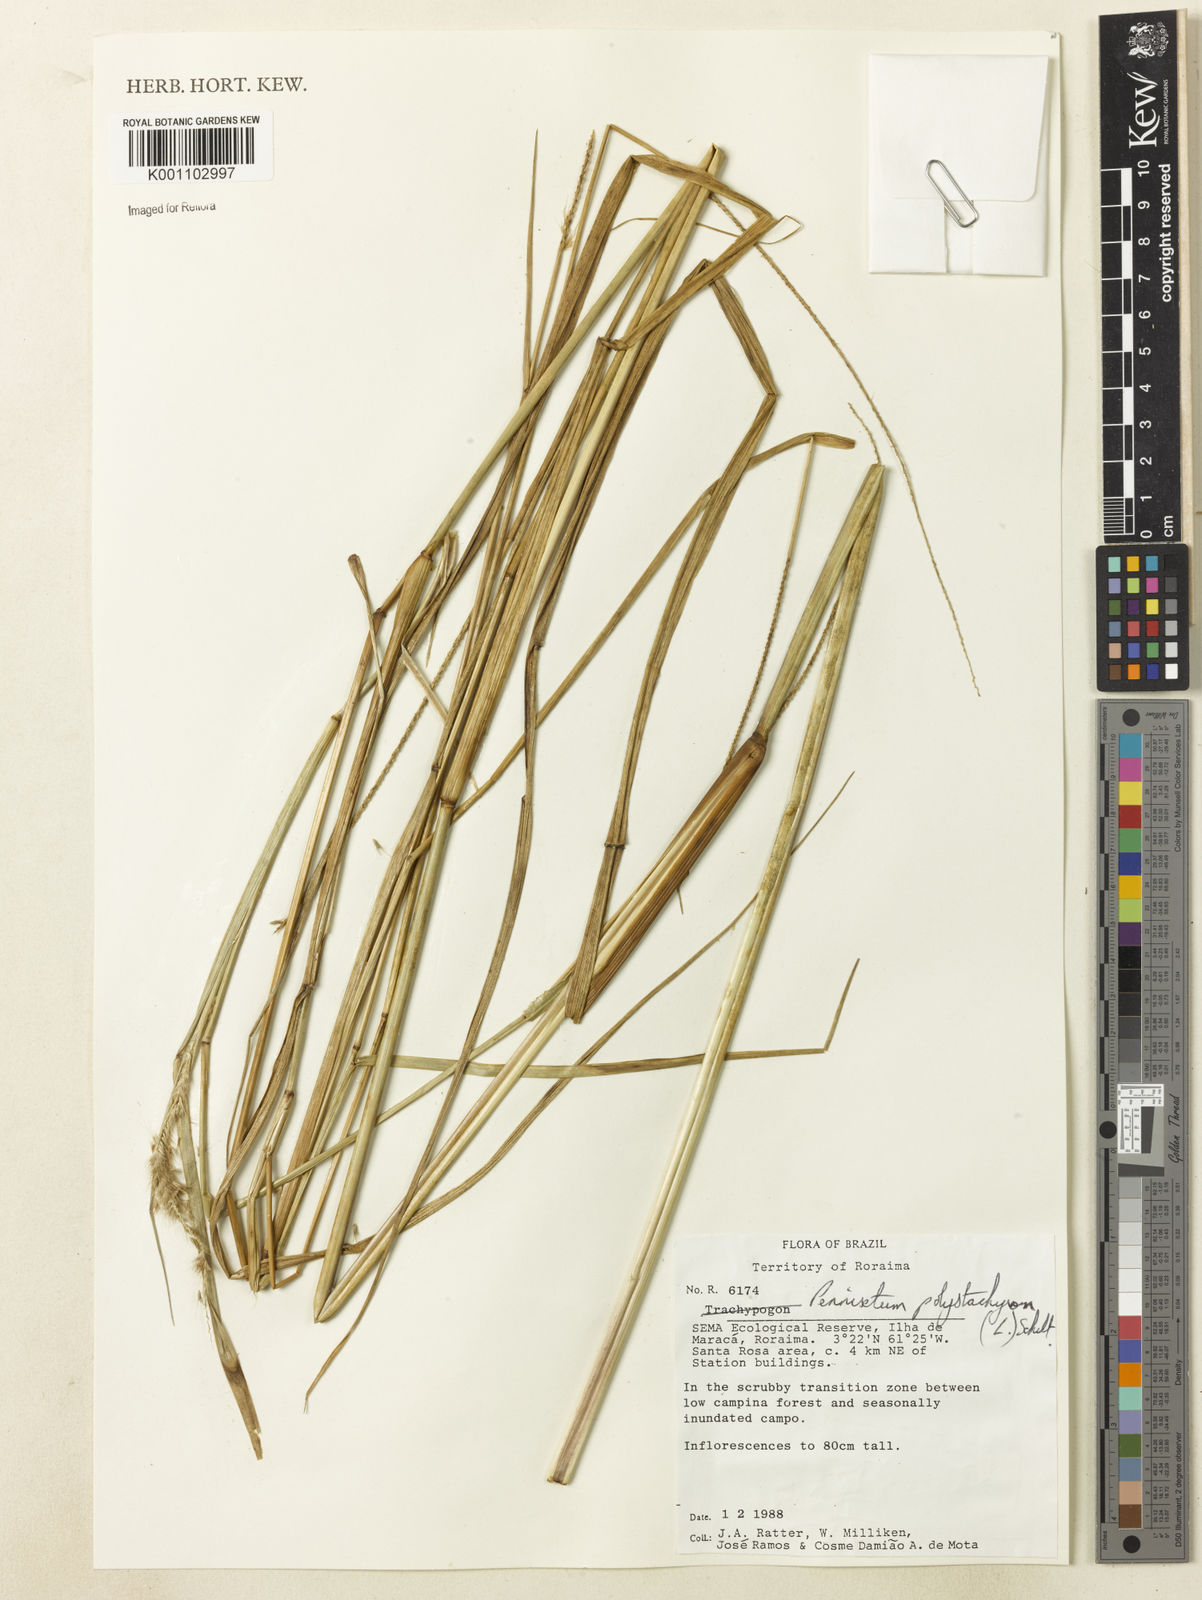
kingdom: Plantae
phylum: Tracheophyta
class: Liliopsida
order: Poales
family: Poaceae
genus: Setaria
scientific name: Setaria parviflora
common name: Knotroot bristle-grass
